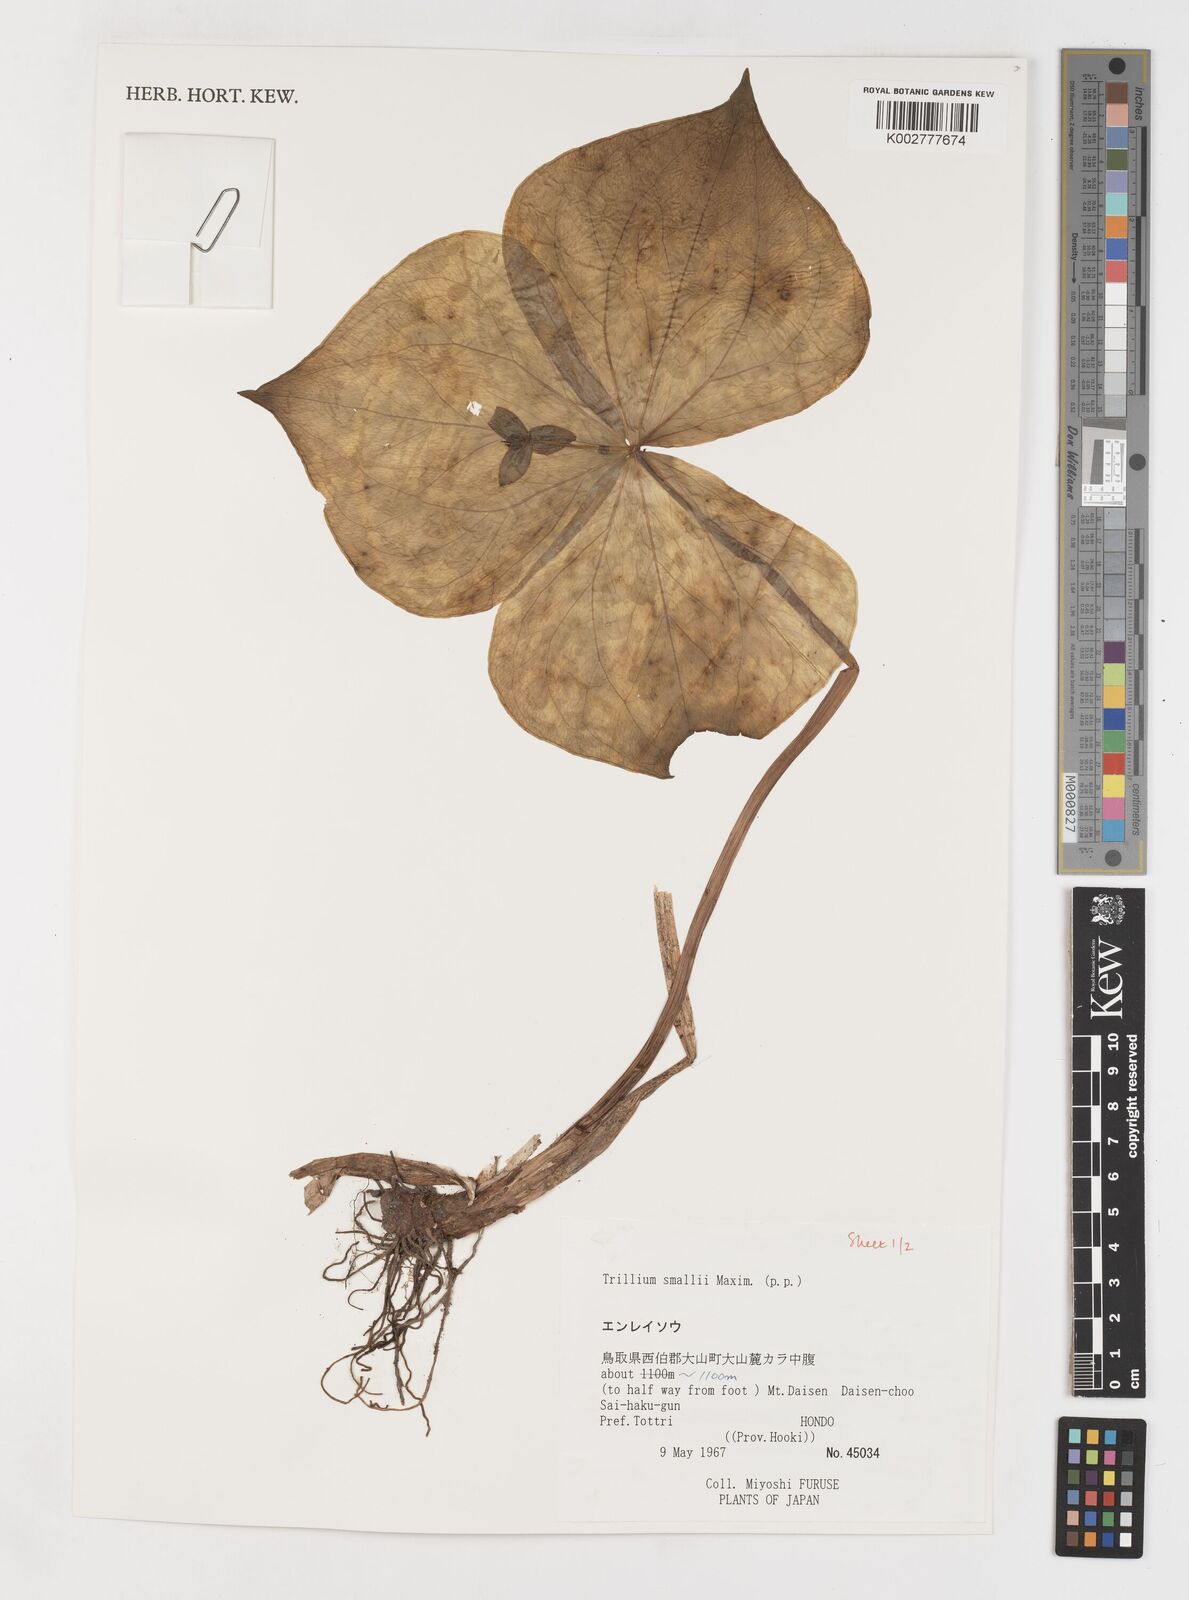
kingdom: Plantae
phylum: Tracheophyta
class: Liliopsida
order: Liliales
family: Melanthiaceae
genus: Trillium
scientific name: Trillium smallii
